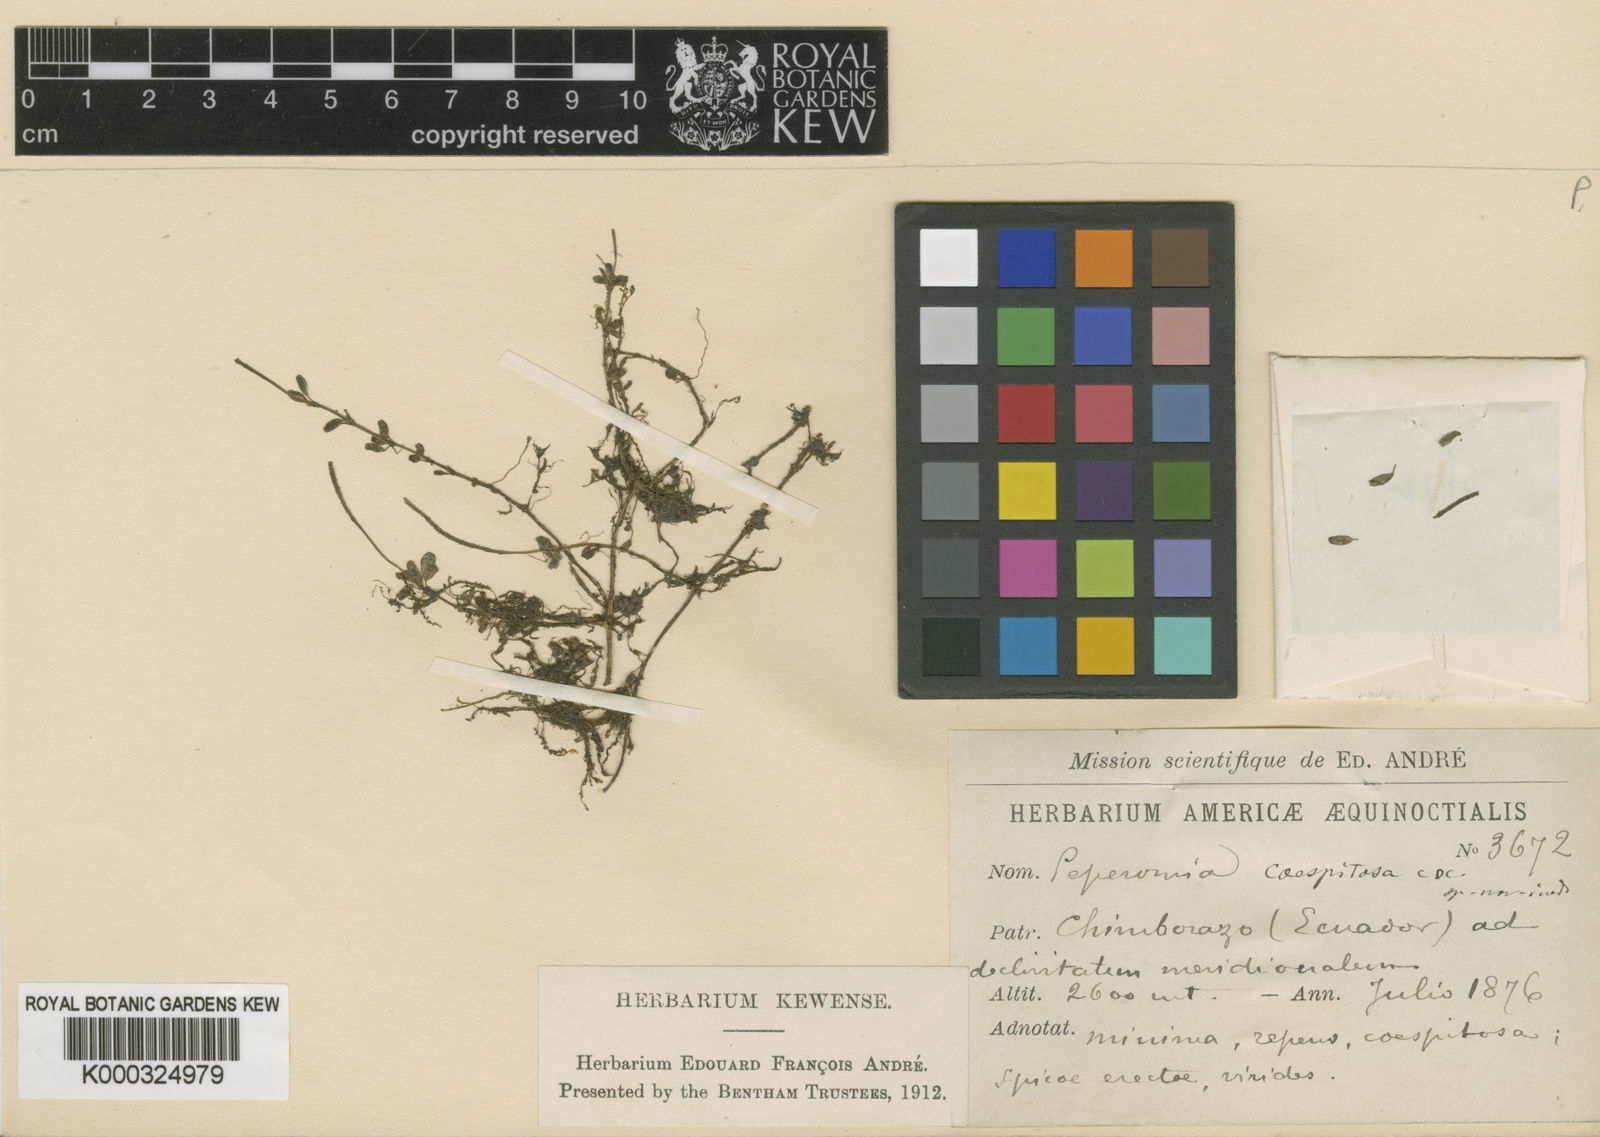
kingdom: Plantae
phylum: Tracheophyta
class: Magnoliopsida
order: Piperales
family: Piperaceae
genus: Peperomia
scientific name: Peperomia caespitosa
